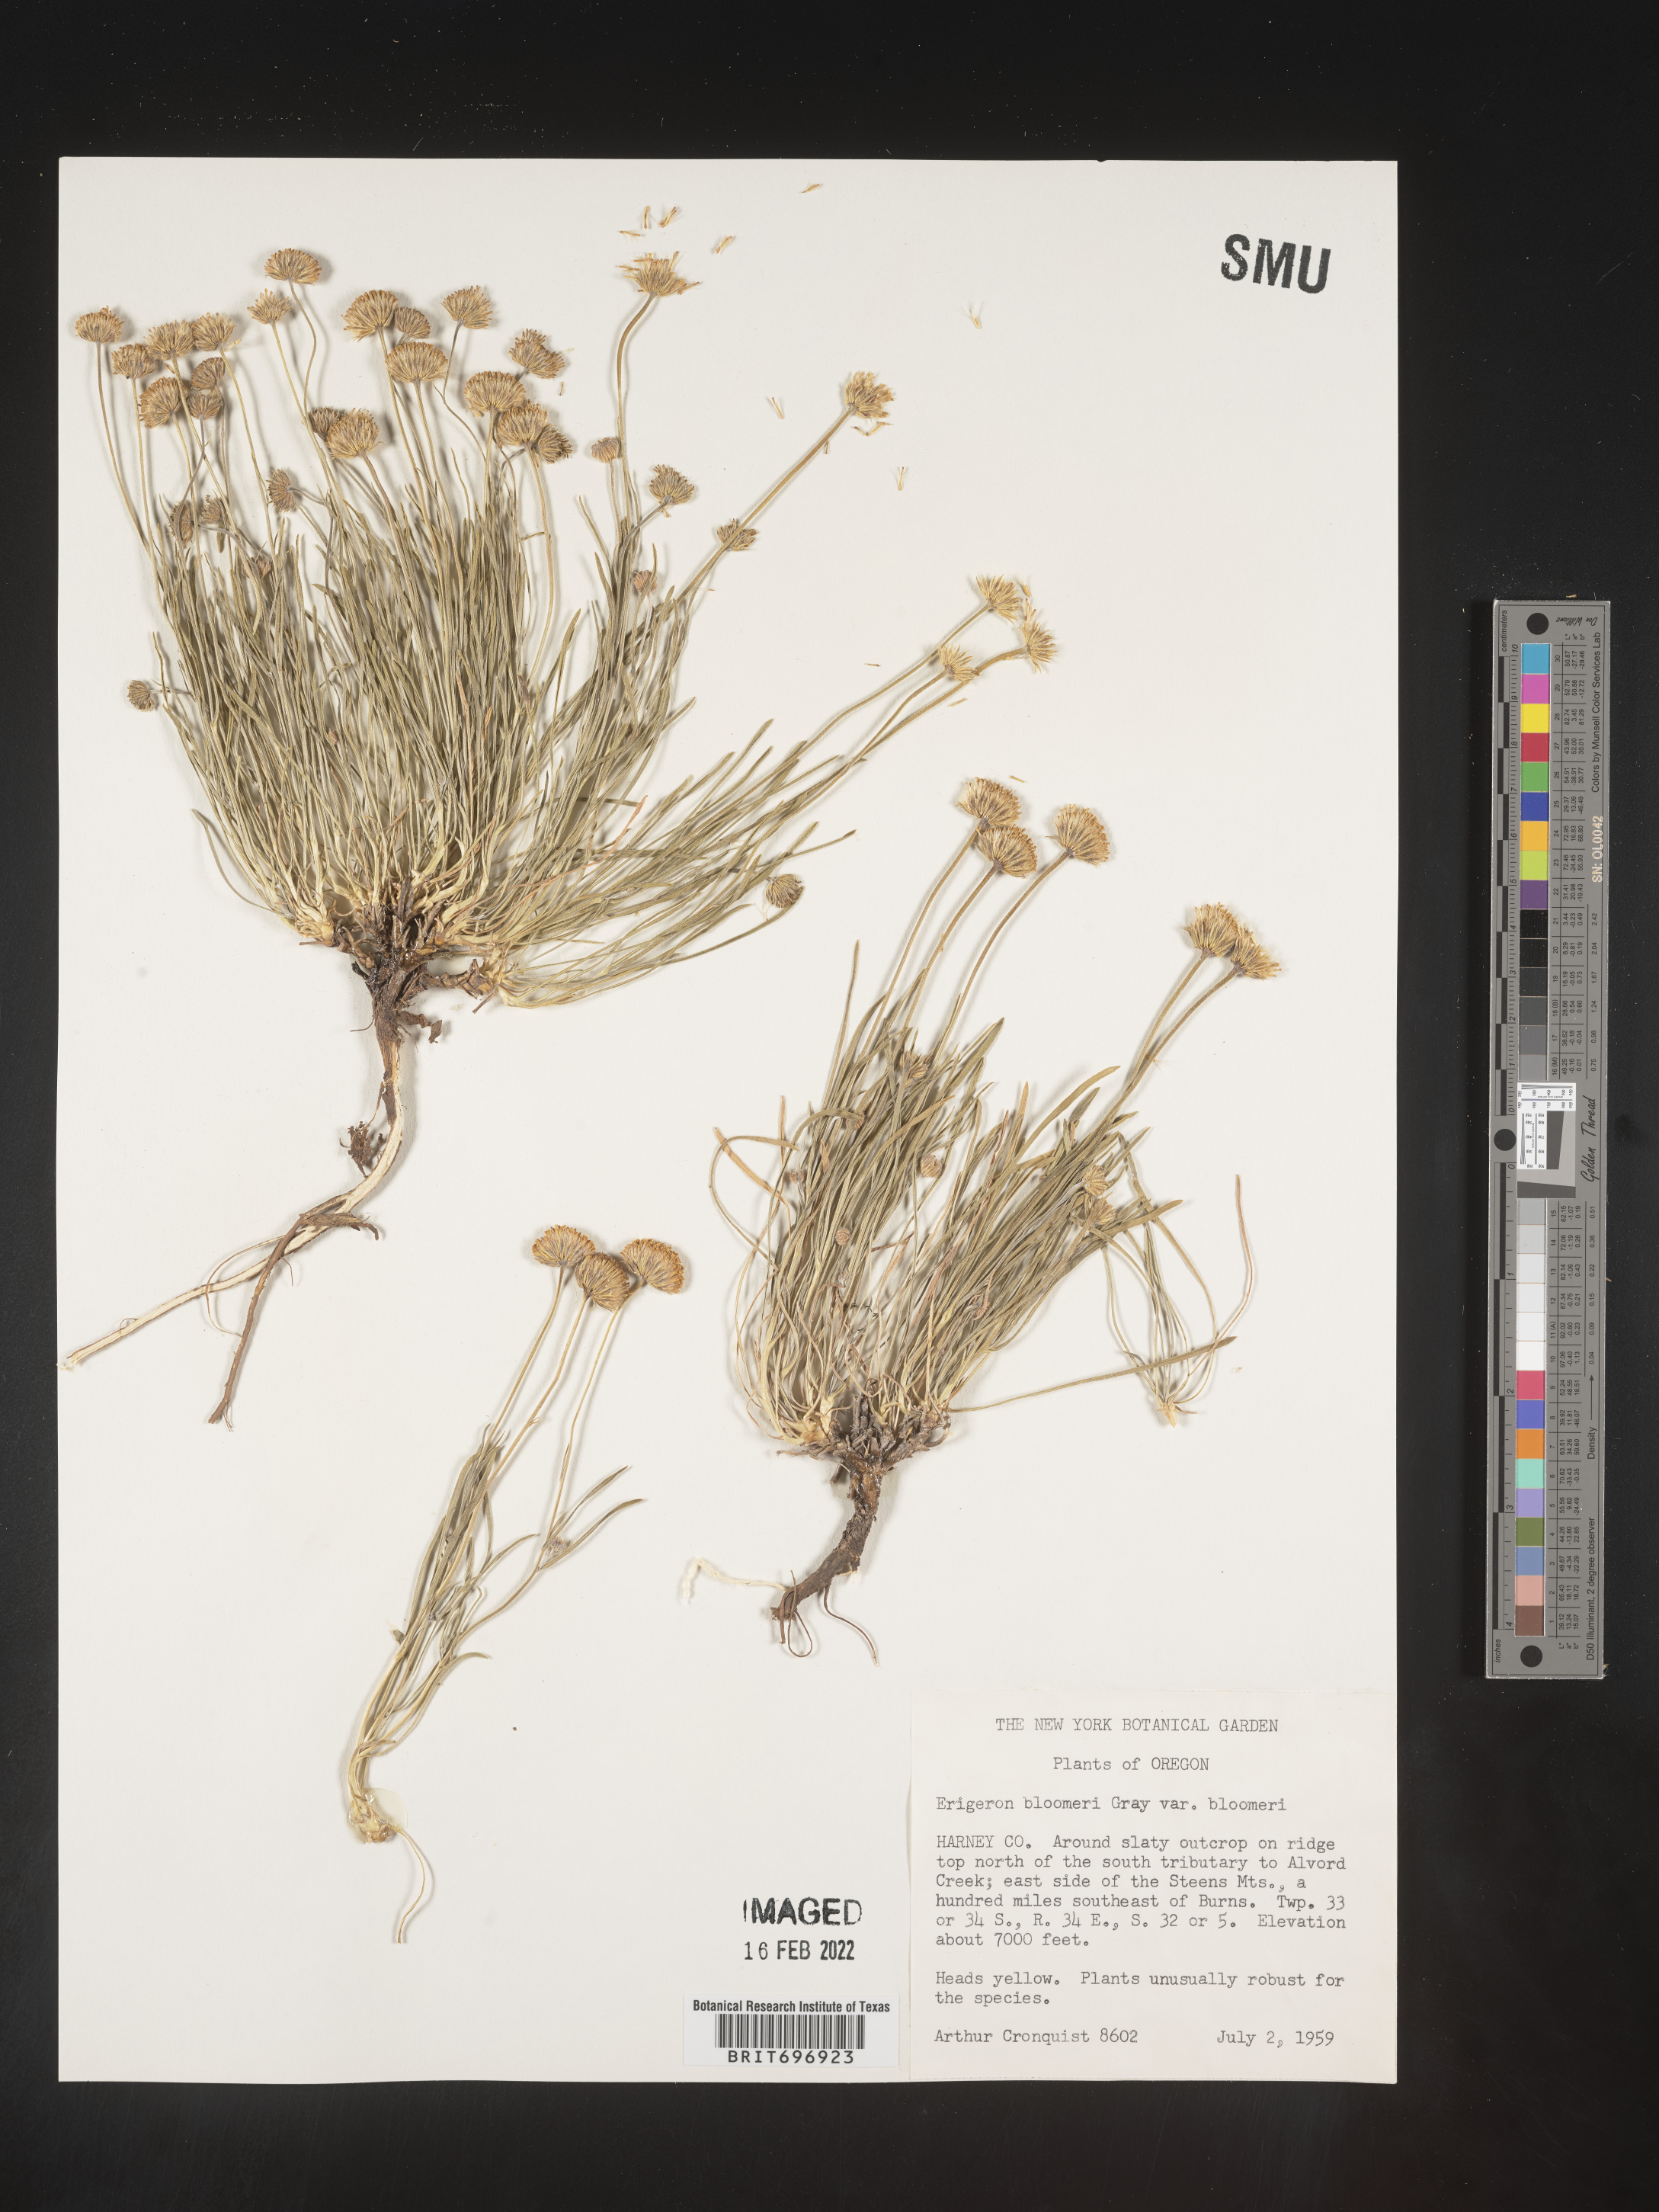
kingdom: Plantae
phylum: Tracheophyta
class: Magnoliopsida
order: Asterales
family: Asteraceae
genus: Erigeron
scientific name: Erigeron bloomeri
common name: Bloomer's fleabane
